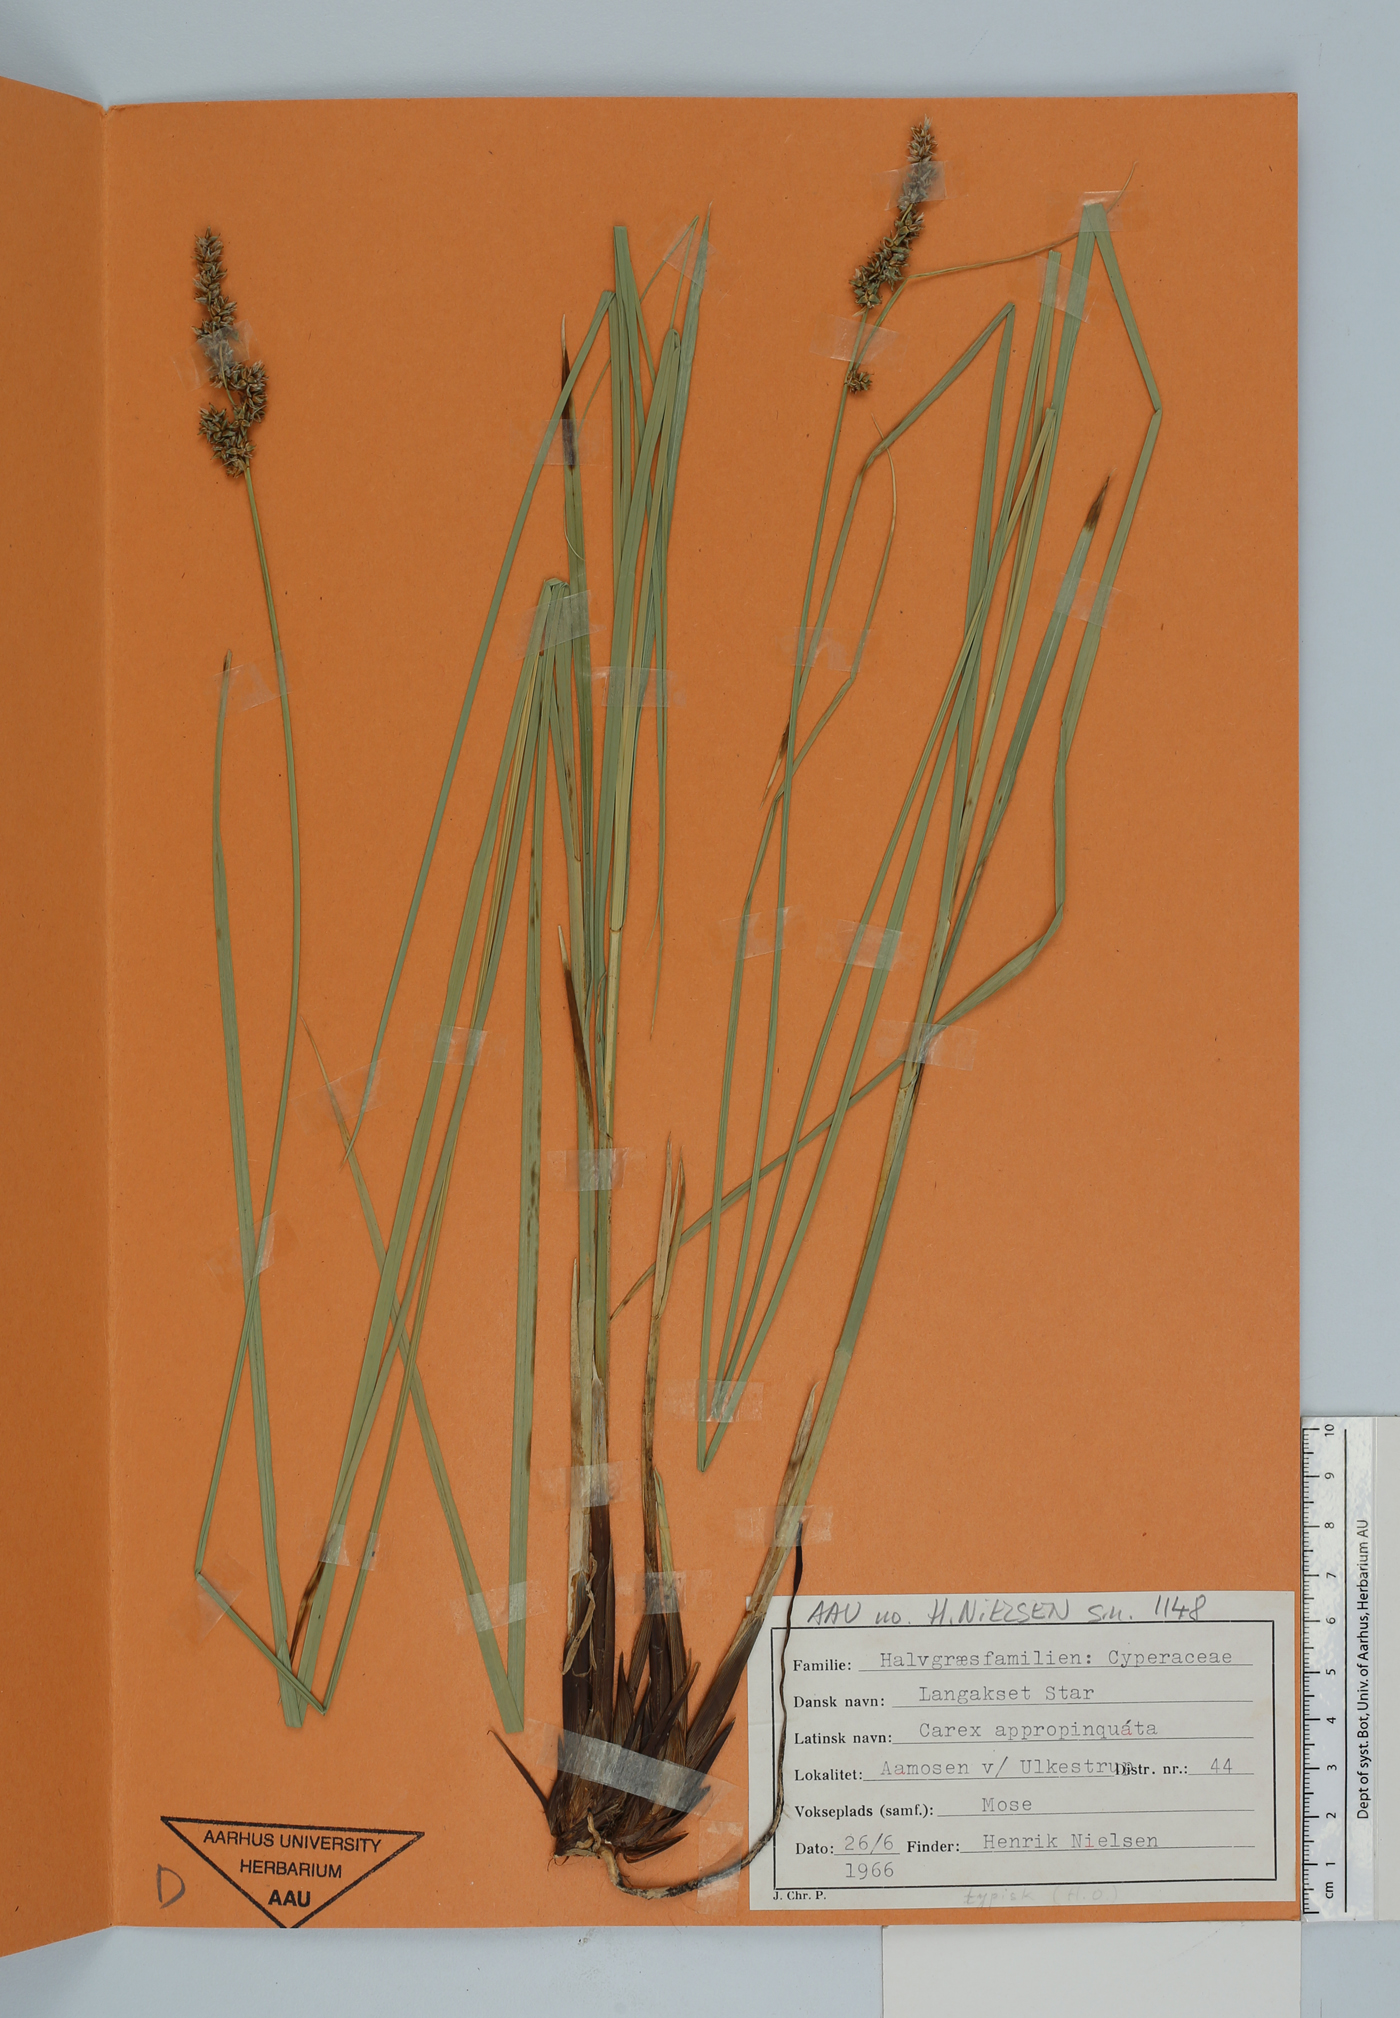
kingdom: Plantae
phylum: Tracheophyta
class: Liliopsida
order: Poales
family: Cyperaceae
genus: Carex
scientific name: Carex appropinquata
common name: Fibrous tussock-sedge
